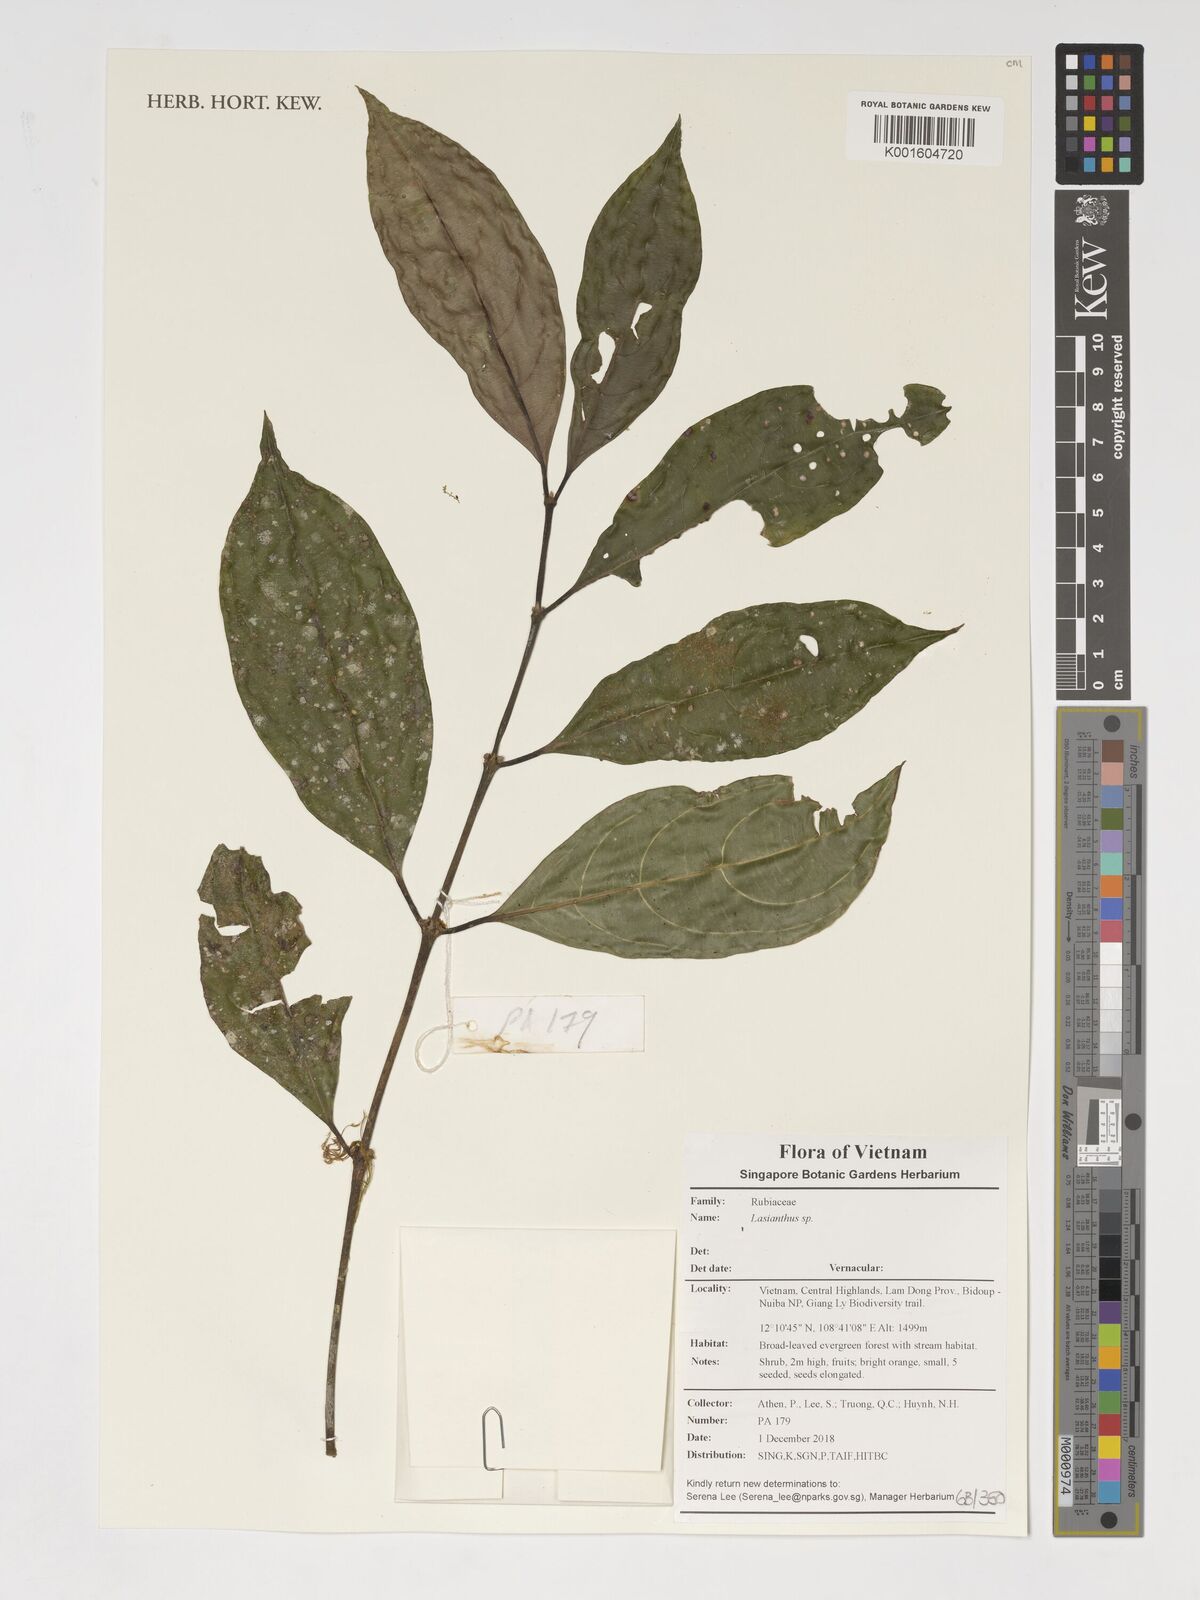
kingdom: Plantae
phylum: Tracheophyta
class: Magnoliopsida
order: Gentianales
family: Rubiaceae
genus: Lasianthus
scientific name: Lasianthus
